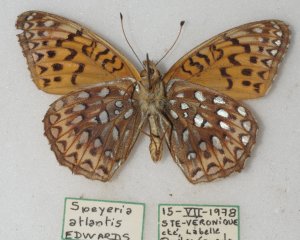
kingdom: Animalia
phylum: Arthropoda
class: Insecta
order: Lepidoptera
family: Nymphalidae
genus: Speyeria
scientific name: Speyeria atlantis
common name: Atlantis Fritillary
